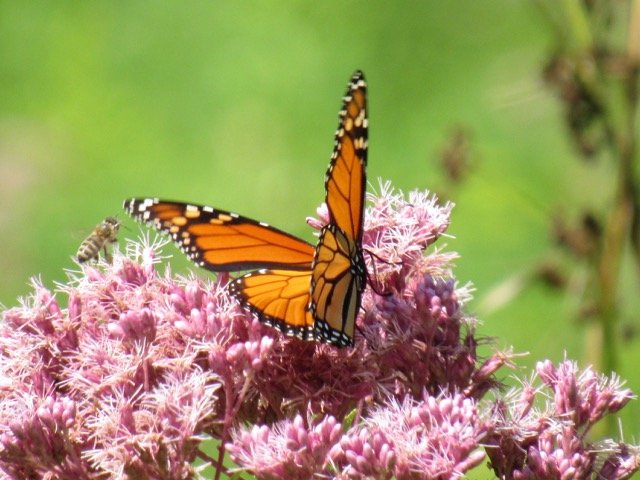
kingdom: Animalia
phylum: Arthropoda
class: Insecta
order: Lepidoptera
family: Nymphalidae
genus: Danaus
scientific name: Danaus plexippus
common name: Monarch
